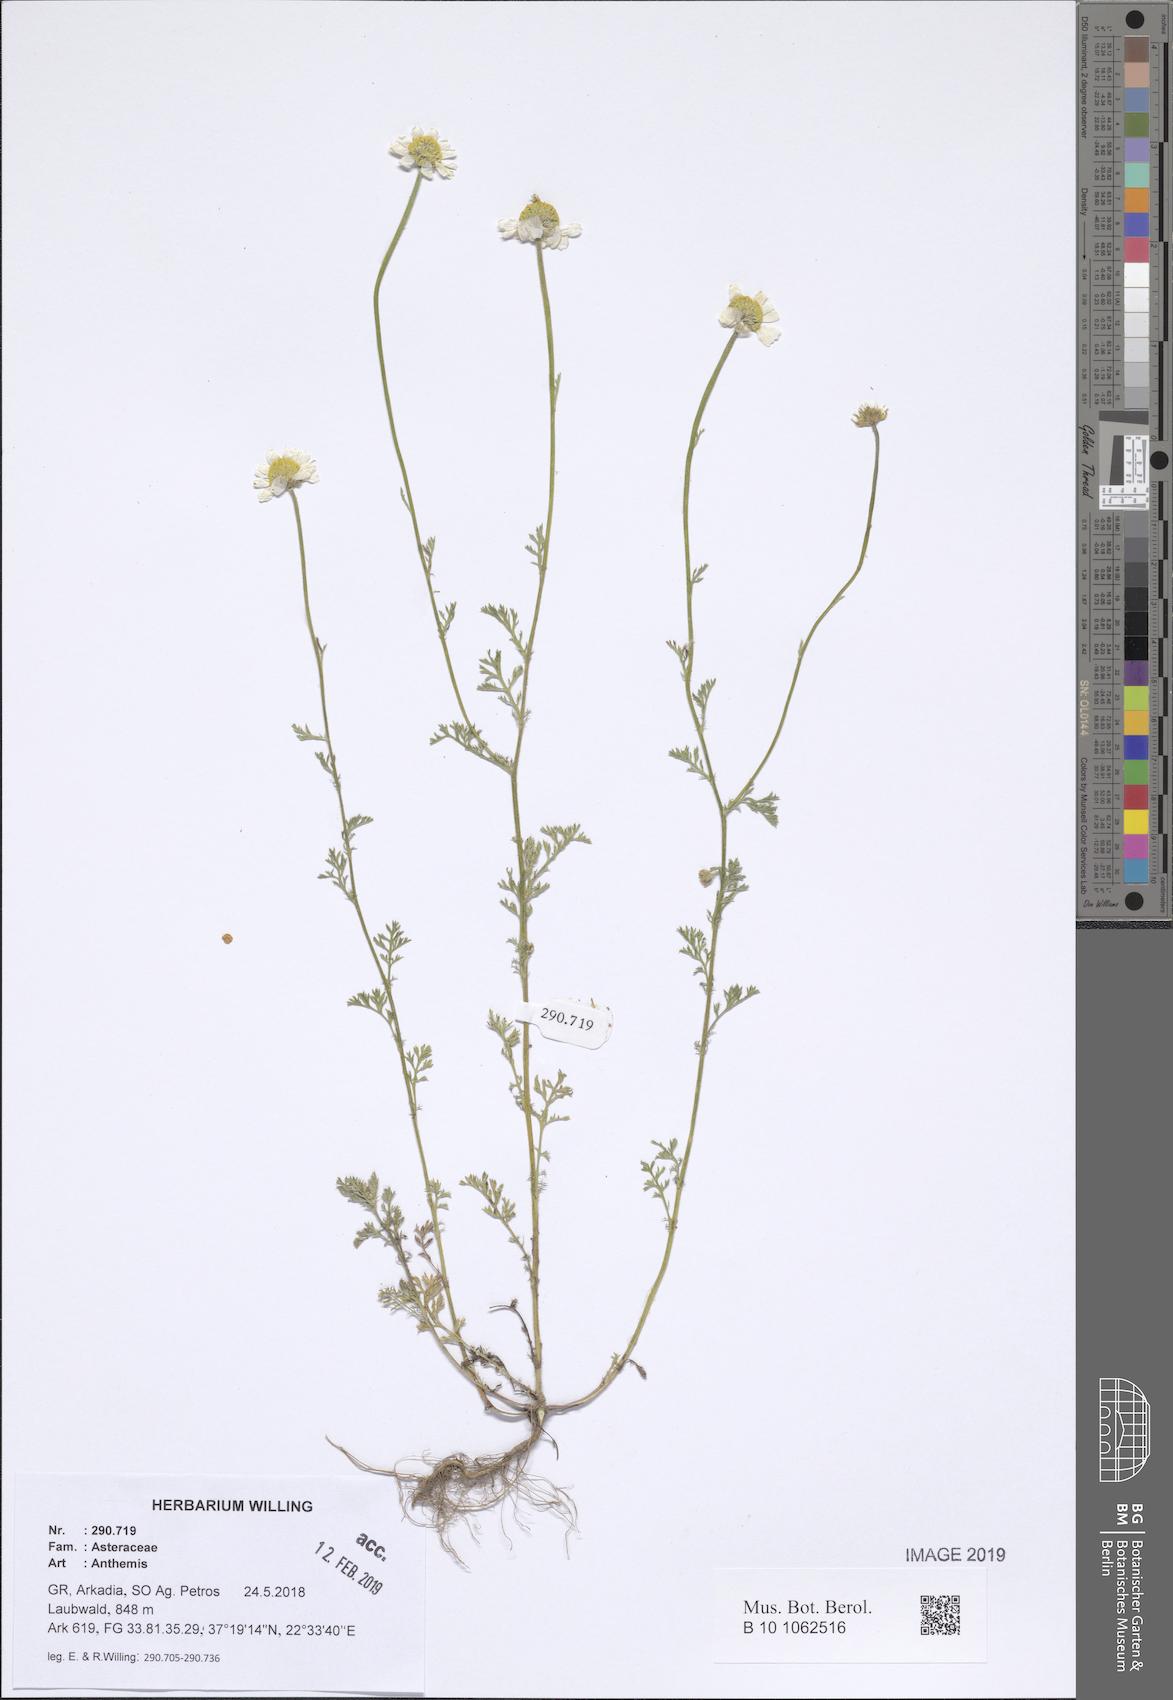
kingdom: Plantae
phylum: Tracheophyta
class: Magnoliopsida
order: Asterales
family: Asteraceae
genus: Anthemis
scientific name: Anthemis
